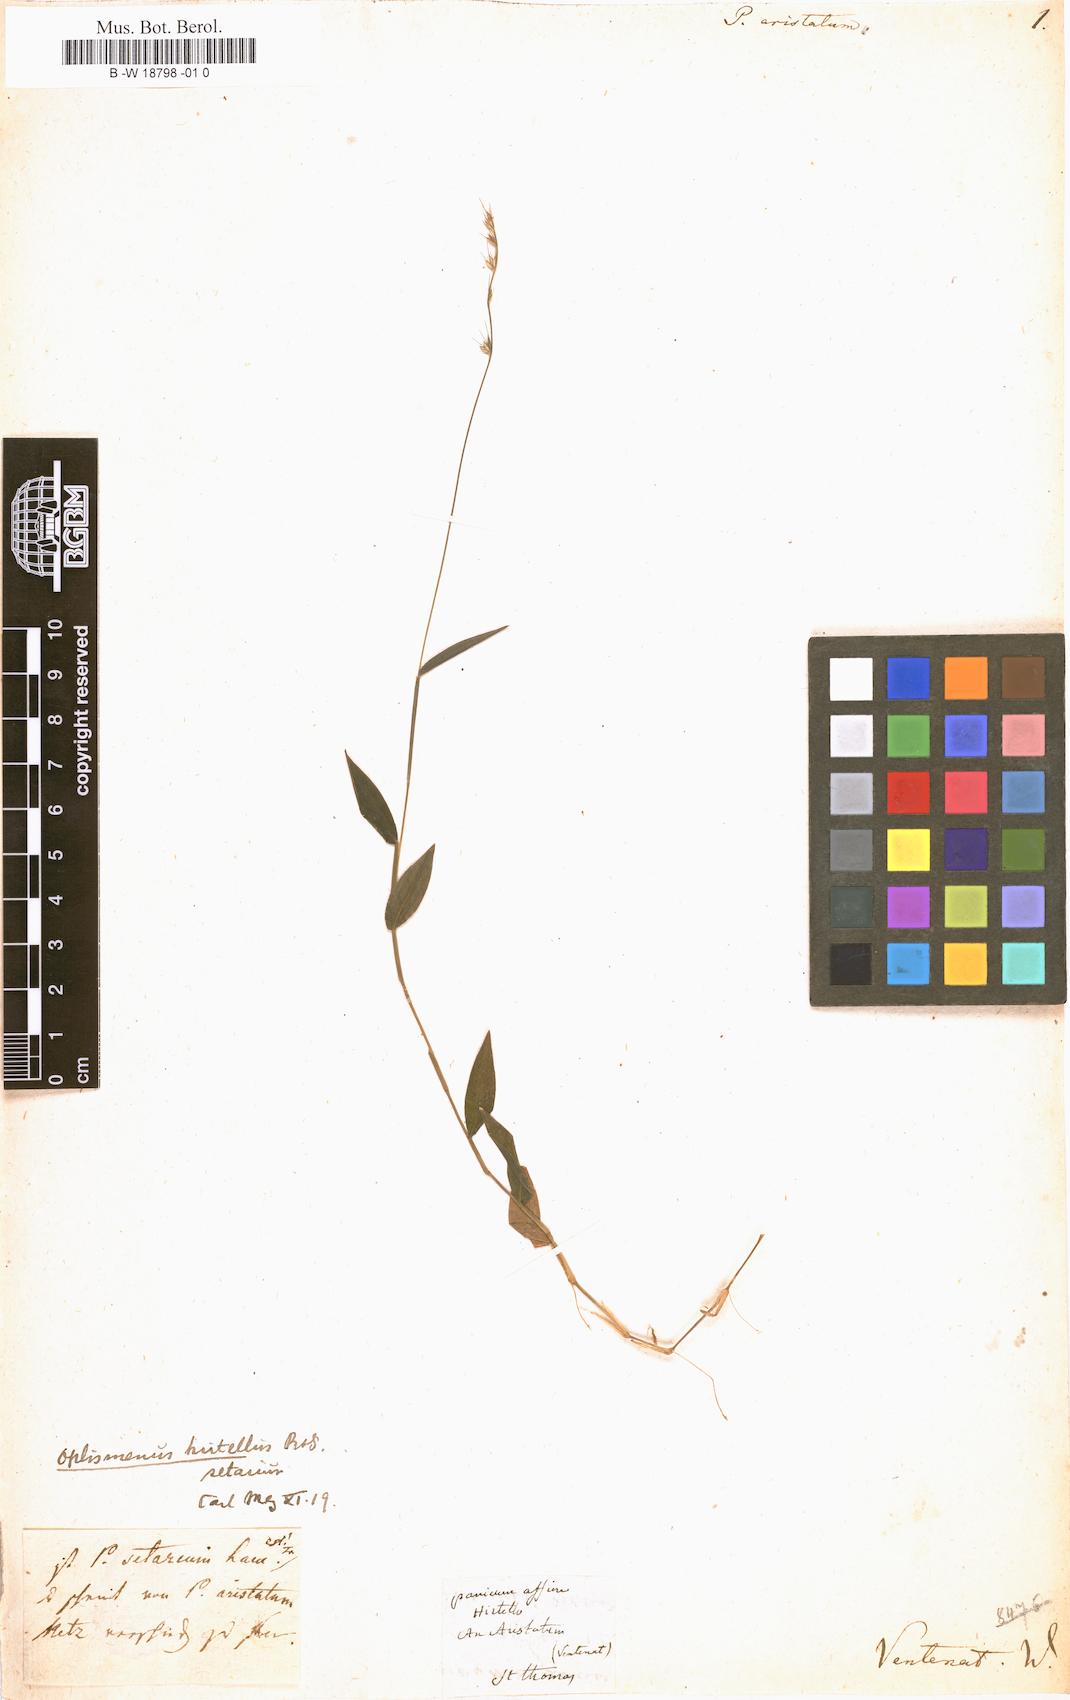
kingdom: Plantae
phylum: Tracheophyta
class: Liliopsida
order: Poales
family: Poaceae
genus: Oplismenus
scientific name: Oplismenus compositus
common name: Running mountain grass
